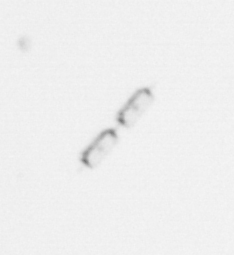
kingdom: Chromista
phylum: Ochrophyta
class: Bacillariophyceae
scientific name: Bacillariophyceae
